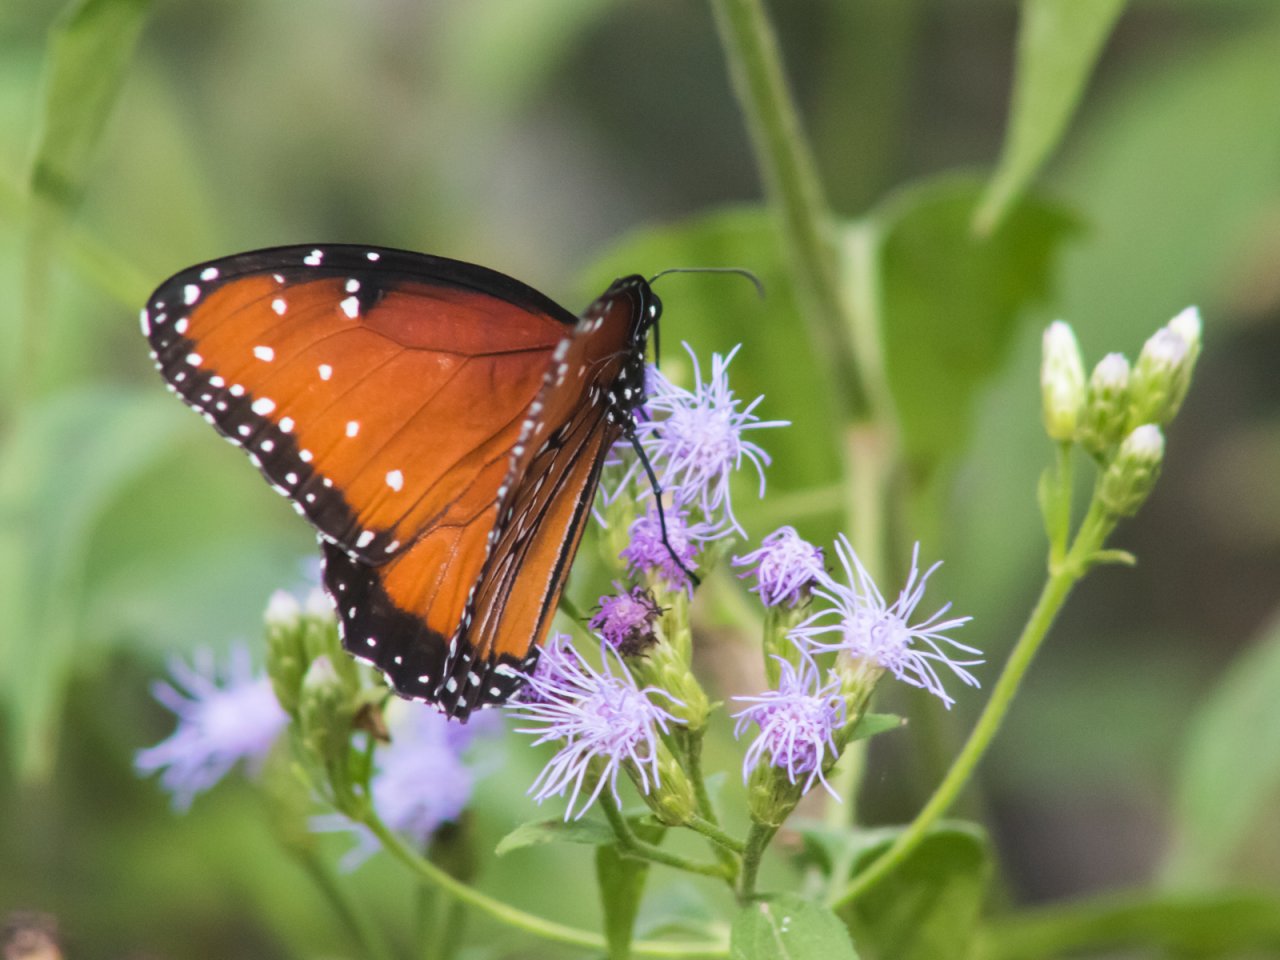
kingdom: Animalia
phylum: Arthropoda
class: Insecta
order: Lepidoptera
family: Nymphalidae
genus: Danaus
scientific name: Danaus gilippus
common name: Queen
